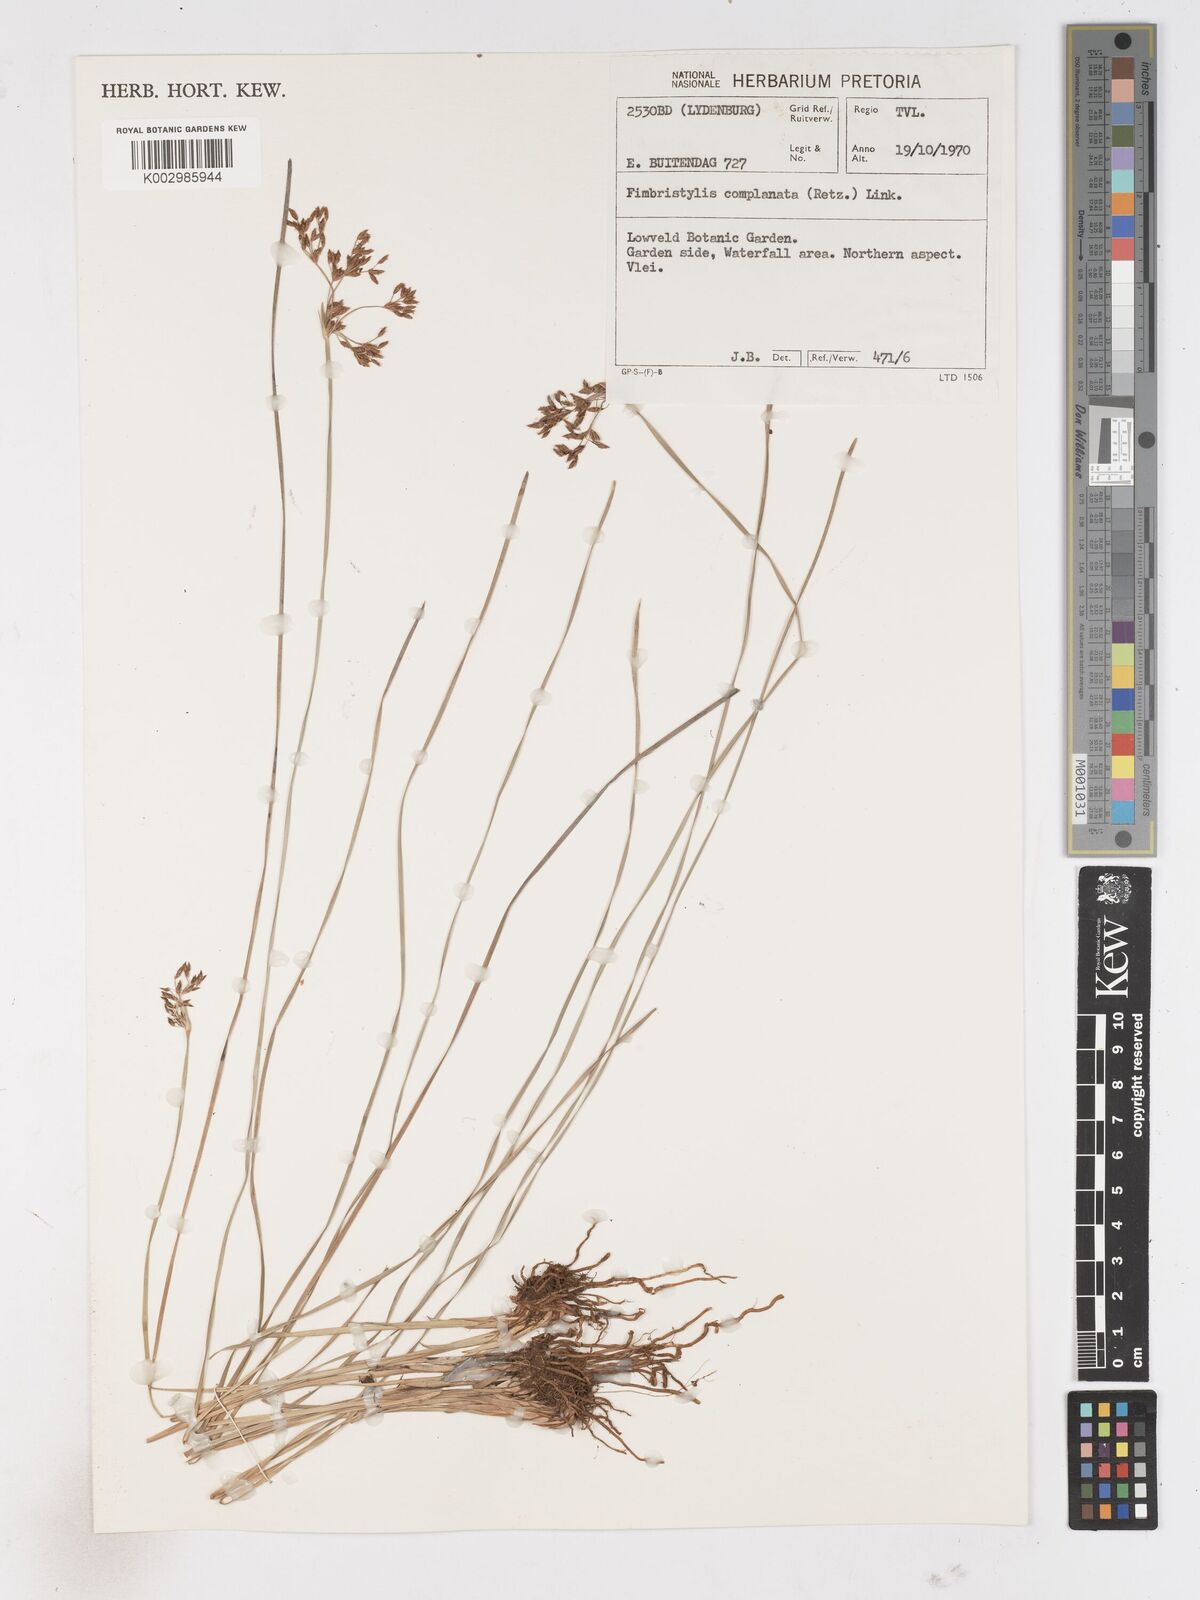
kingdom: Plantae
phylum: Tracheophyta
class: Liliopsida
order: Poales
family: Cyperaceae
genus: Fimbristylis
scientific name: Fimbristylis complanata
